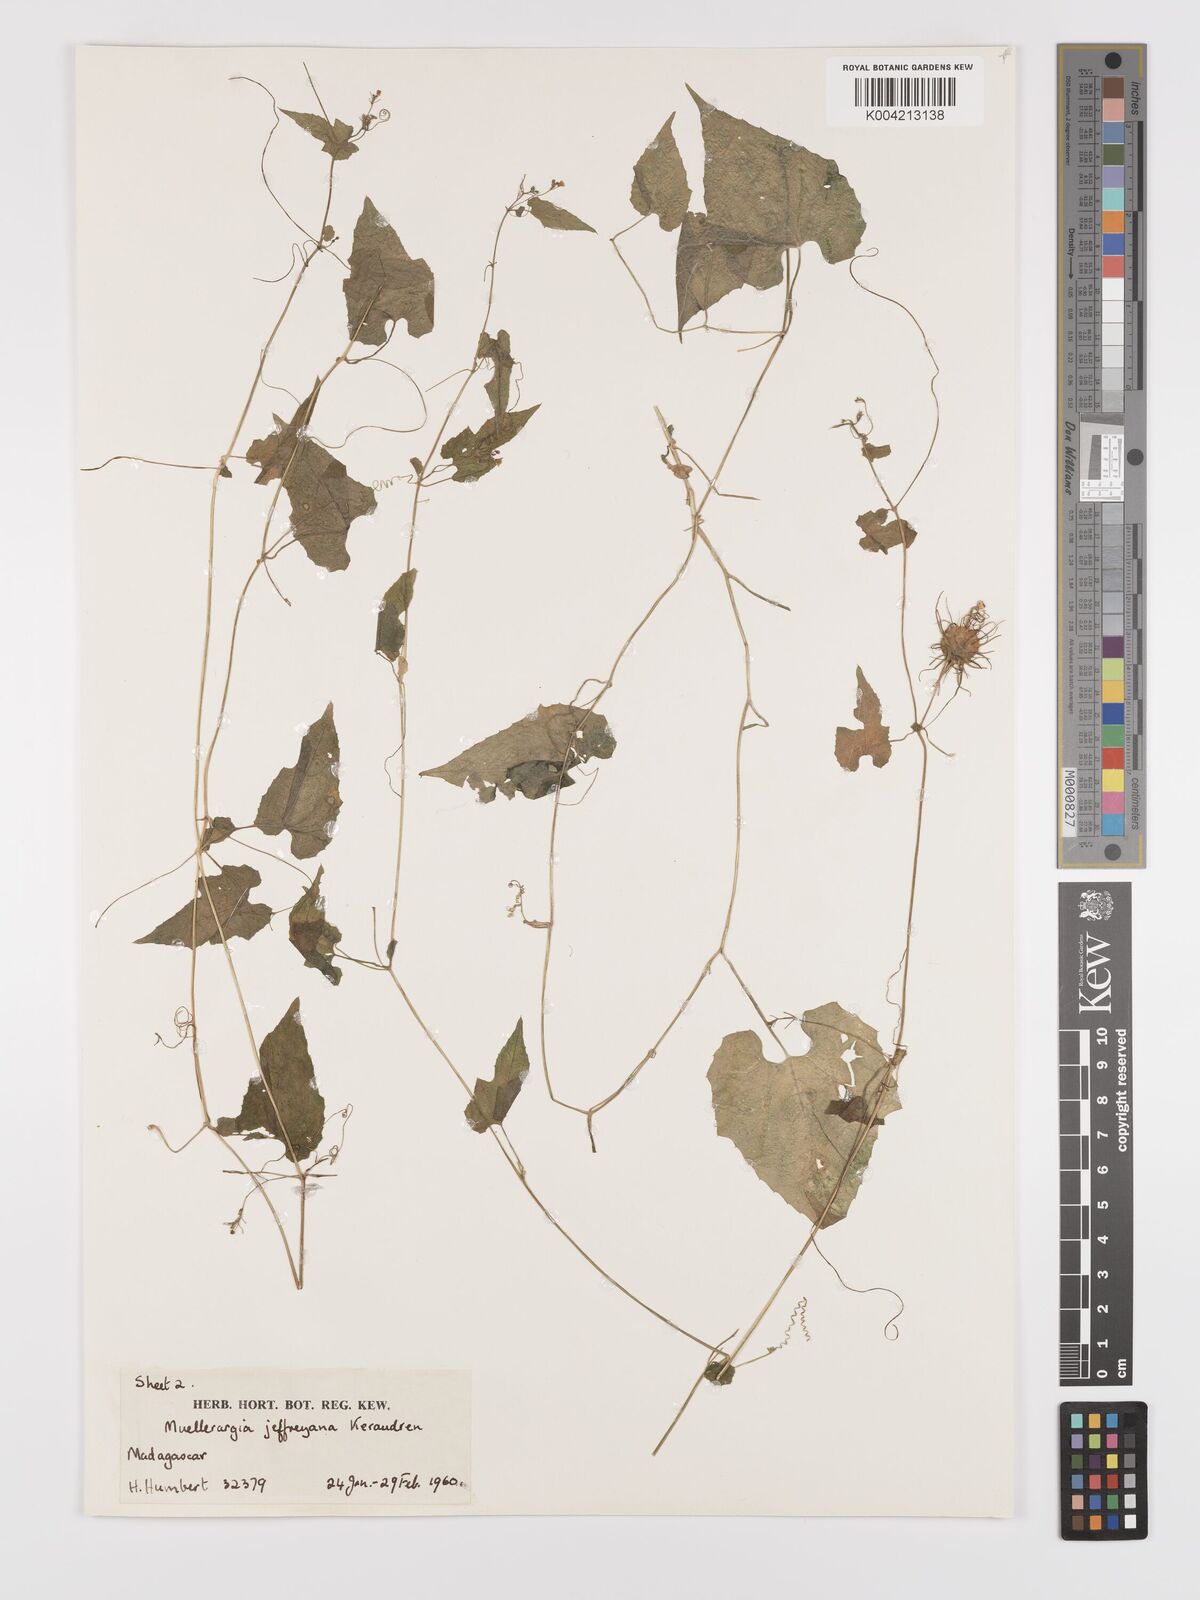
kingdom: Plantae
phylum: Tracheophyta
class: Magnoliopsida
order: Cucurbitales
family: Cucurbitaceae
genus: Muellerargia
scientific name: Muellerargia jeffreyana
